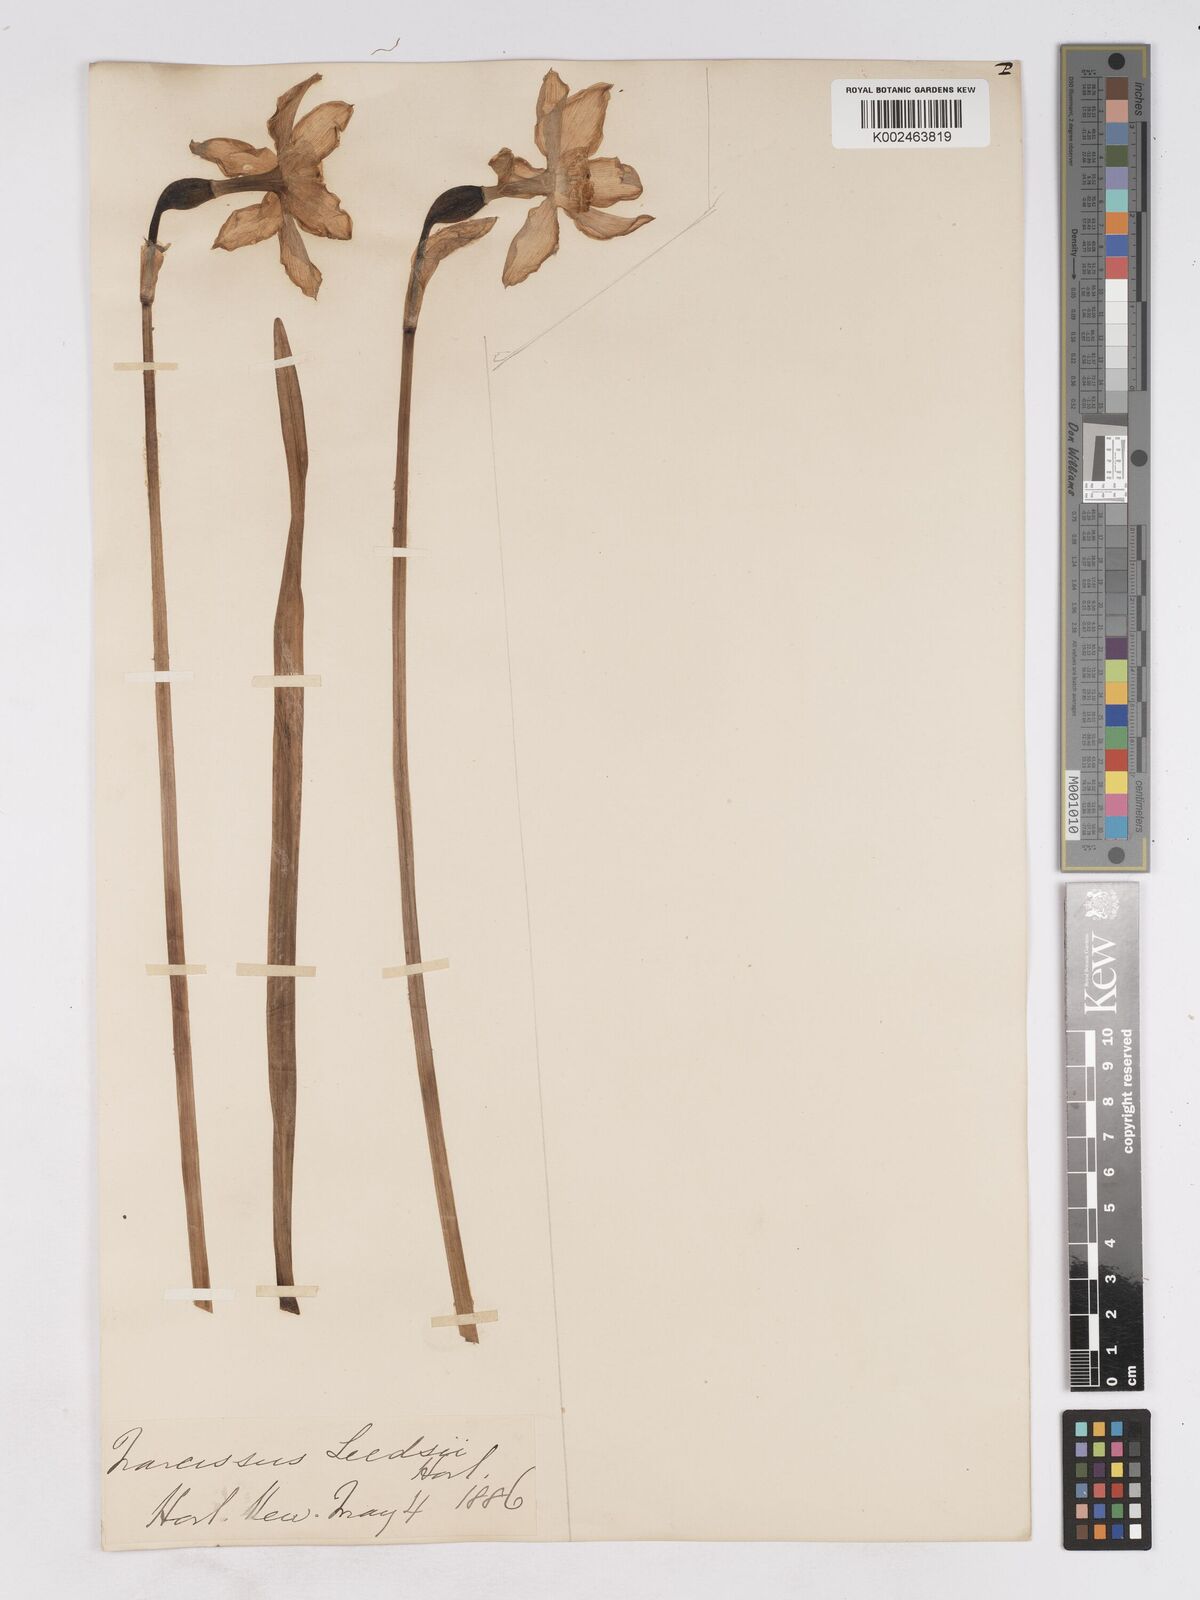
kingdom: Plantae
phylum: Tracheophyta
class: Liliopsida
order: Asparagales
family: Amaryllidaceae
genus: Narcissus
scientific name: Narcissus leedsii
